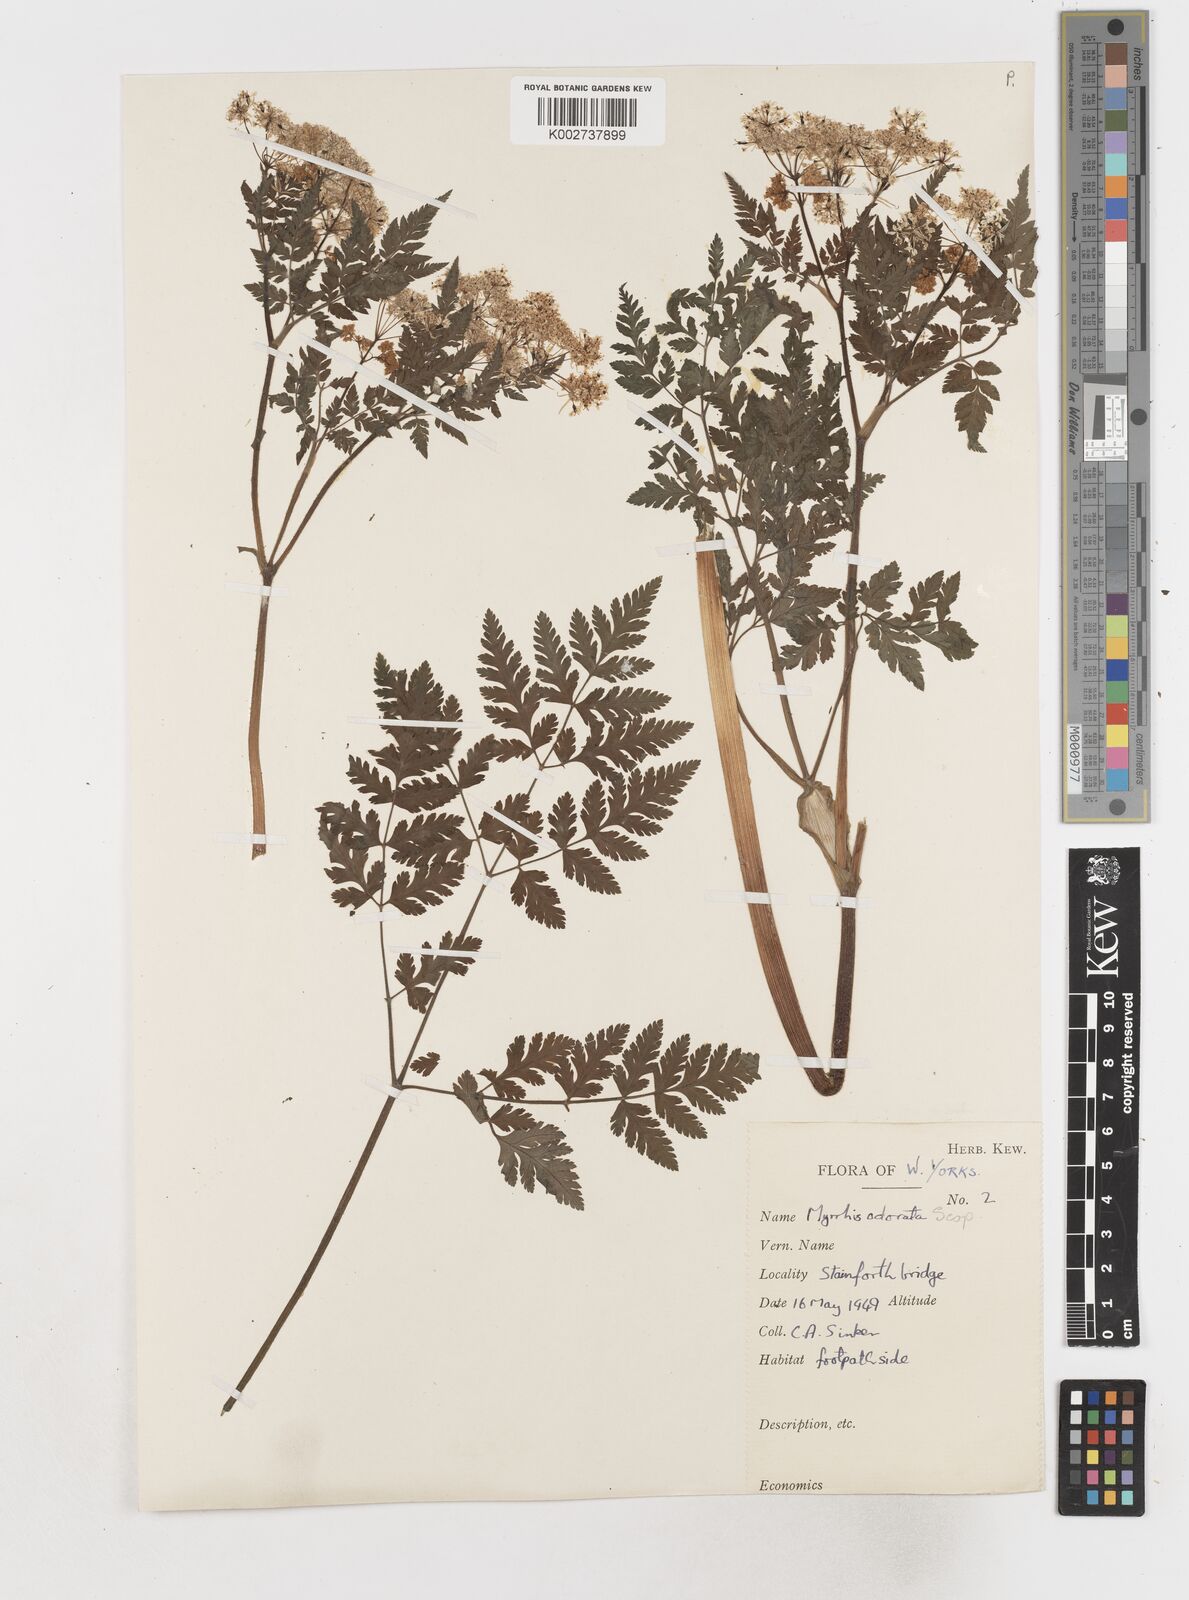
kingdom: Plantae
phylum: Tracheophyta
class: Magnoliopsida
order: Apiales
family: Apiaceae
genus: Myrrhis
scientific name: Myrrhis odorata
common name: Sweet cicely
